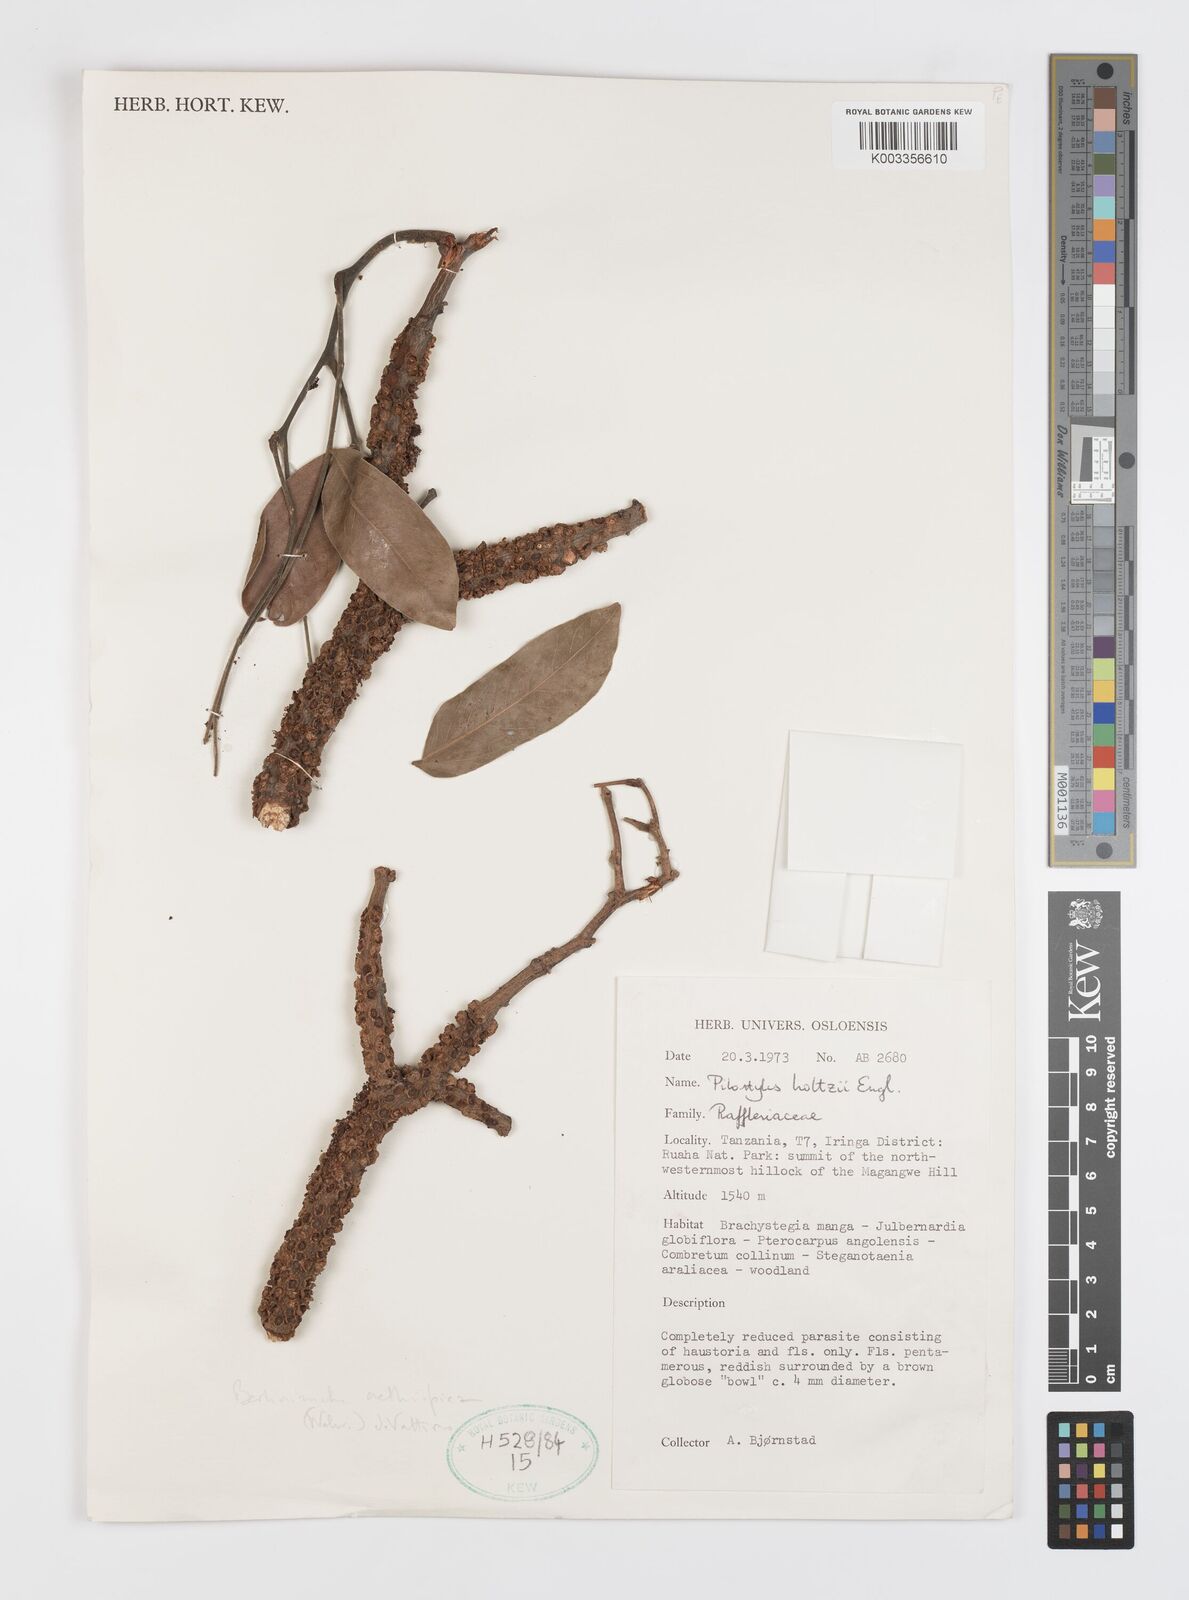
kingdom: Plantae
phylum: Tracheophyta
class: Magnoliopsida
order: Cucurbitales
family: Apodanthaceae
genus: Pilostyles
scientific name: Pilostyles aethiopica
